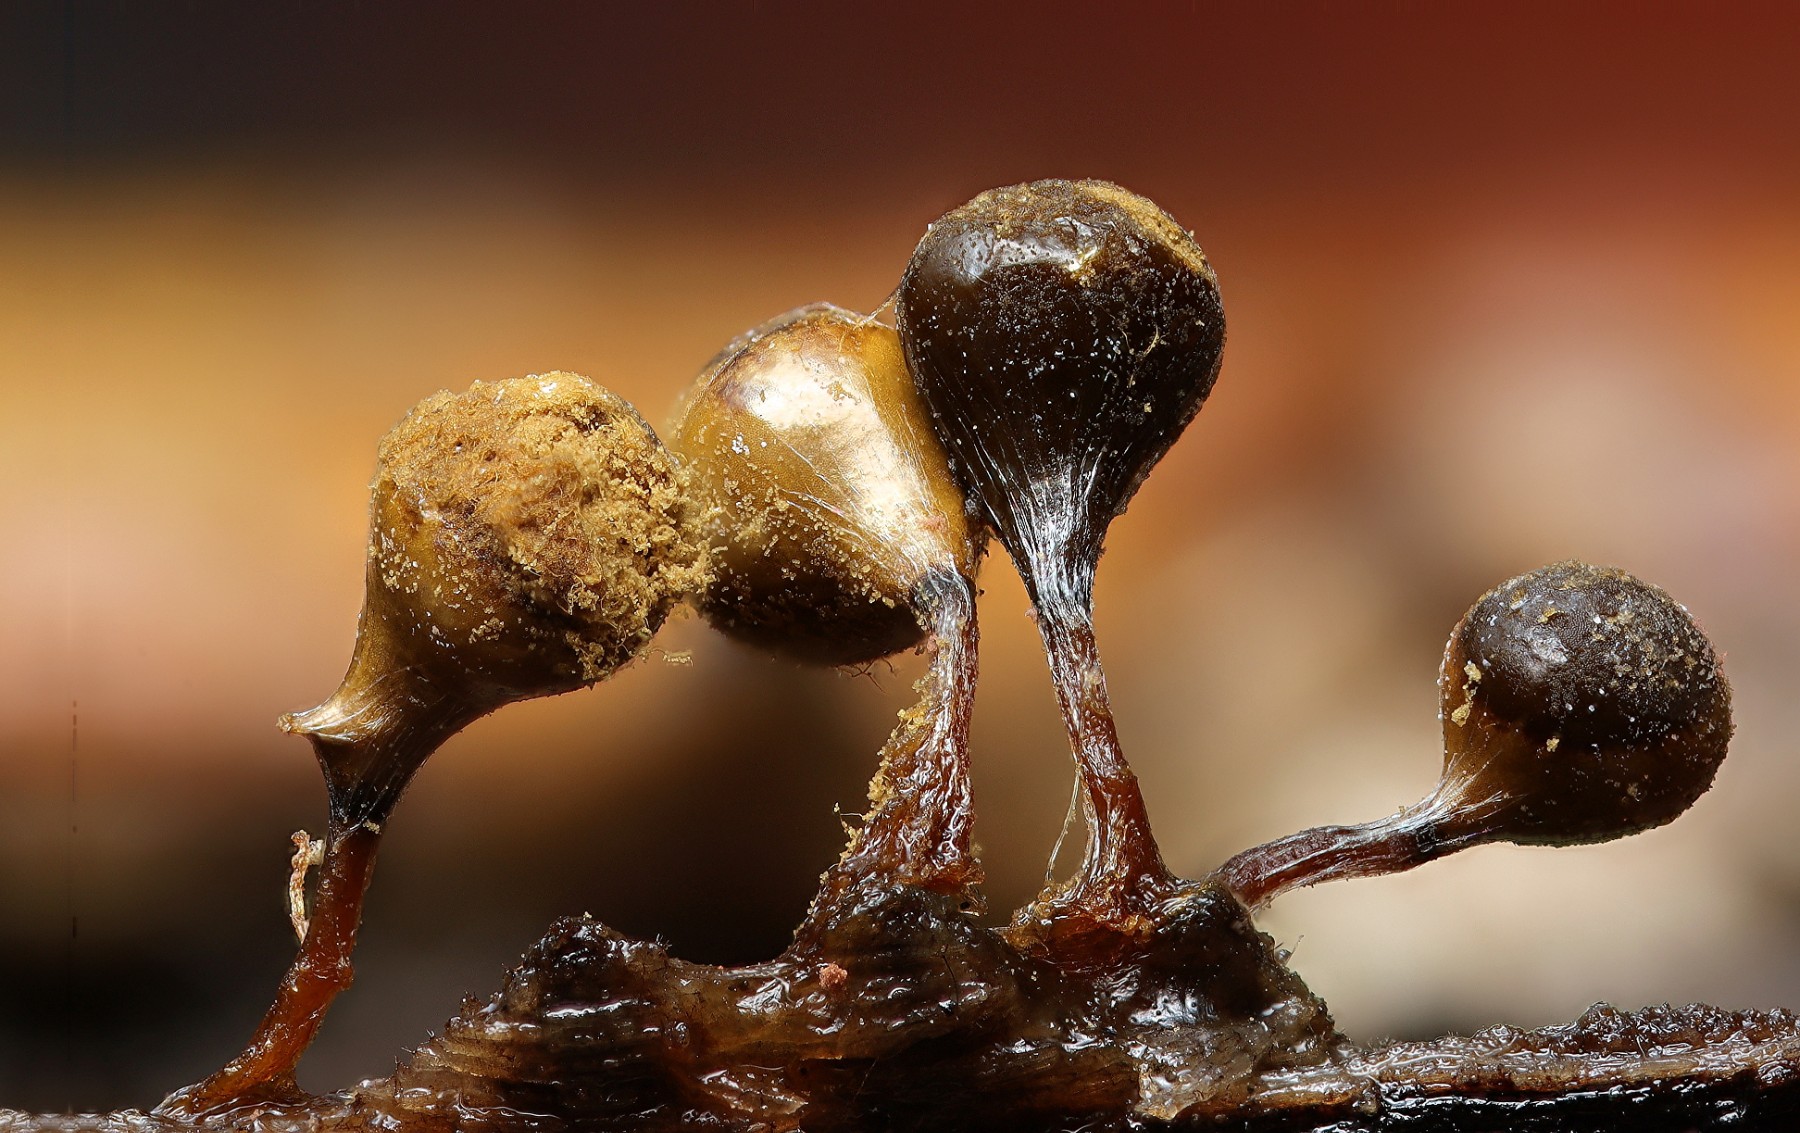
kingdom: Protozoa
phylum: Mycetozoa
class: Myxomycetes
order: Trichiales
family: Trichiaceae
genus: Trichia
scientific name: Trichia crateriformis
